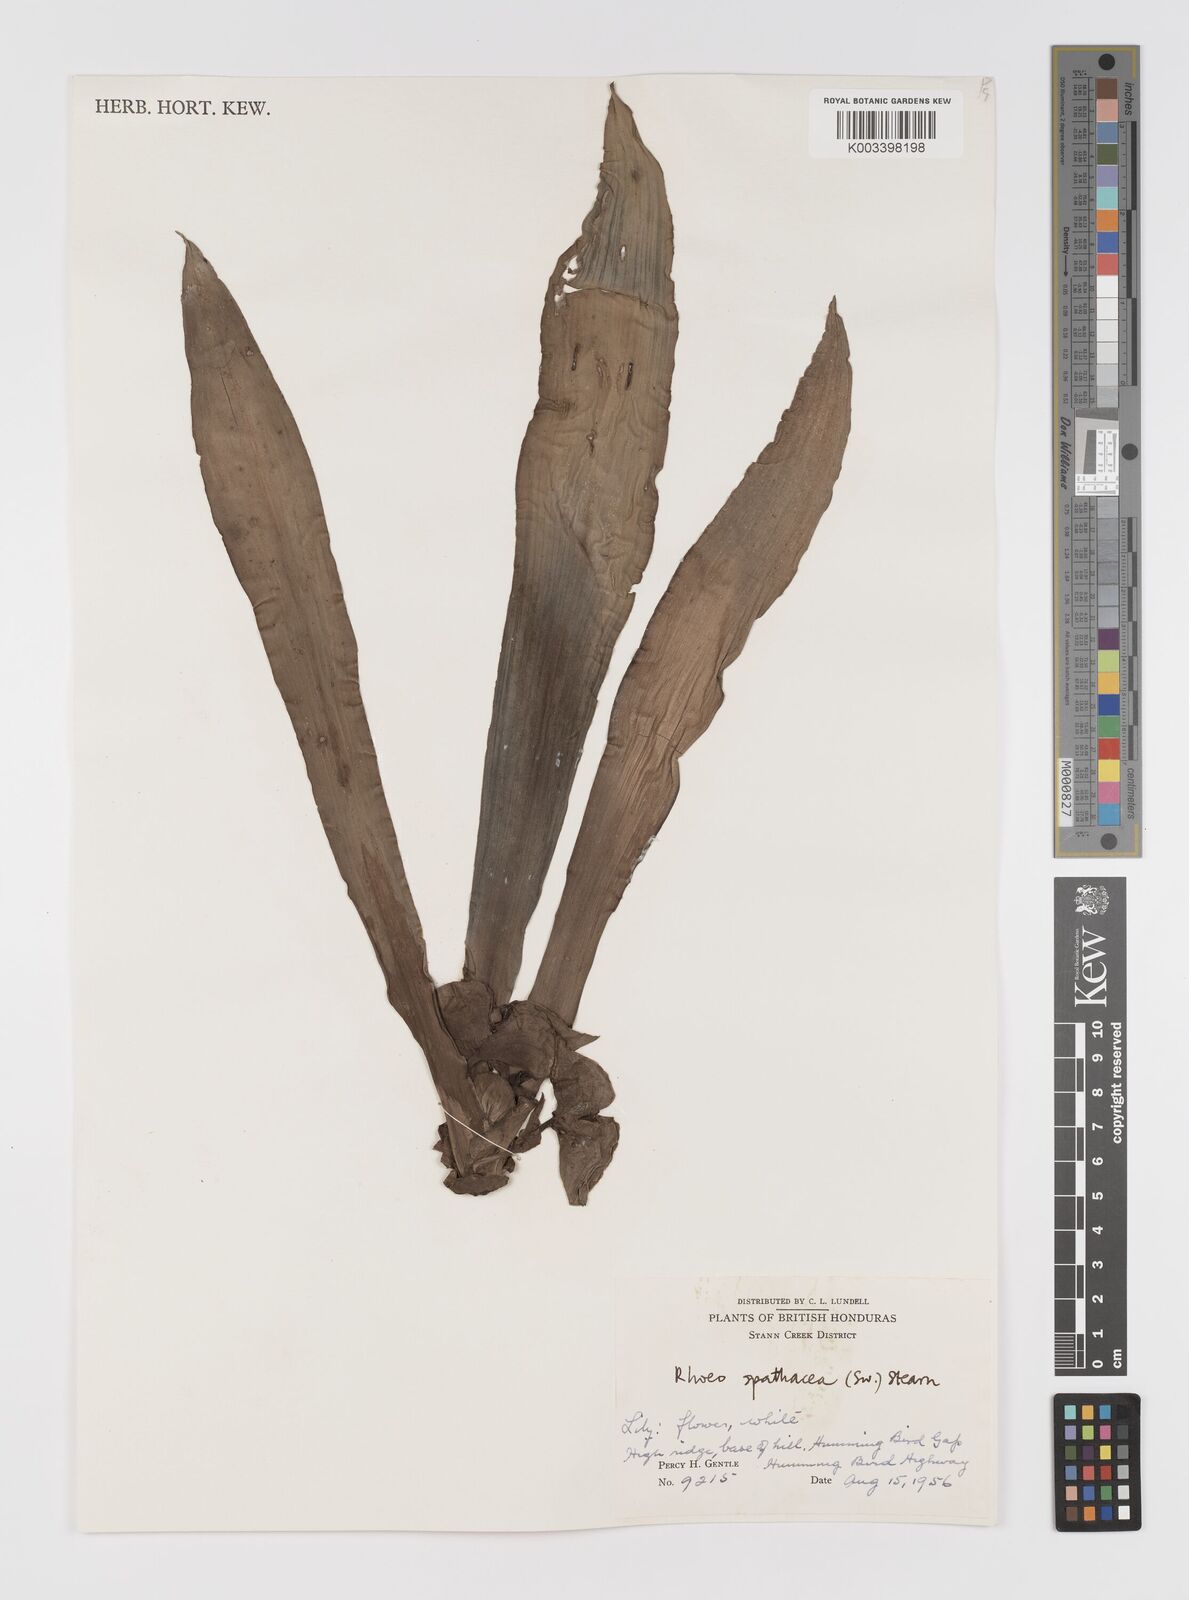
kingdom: Plantae
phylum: Tracheophyta
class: Liliopsida
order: Commelinales
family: Commelinaceae
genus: Tradescantia
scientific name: Tradescantia spathacea
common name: Boatlily
